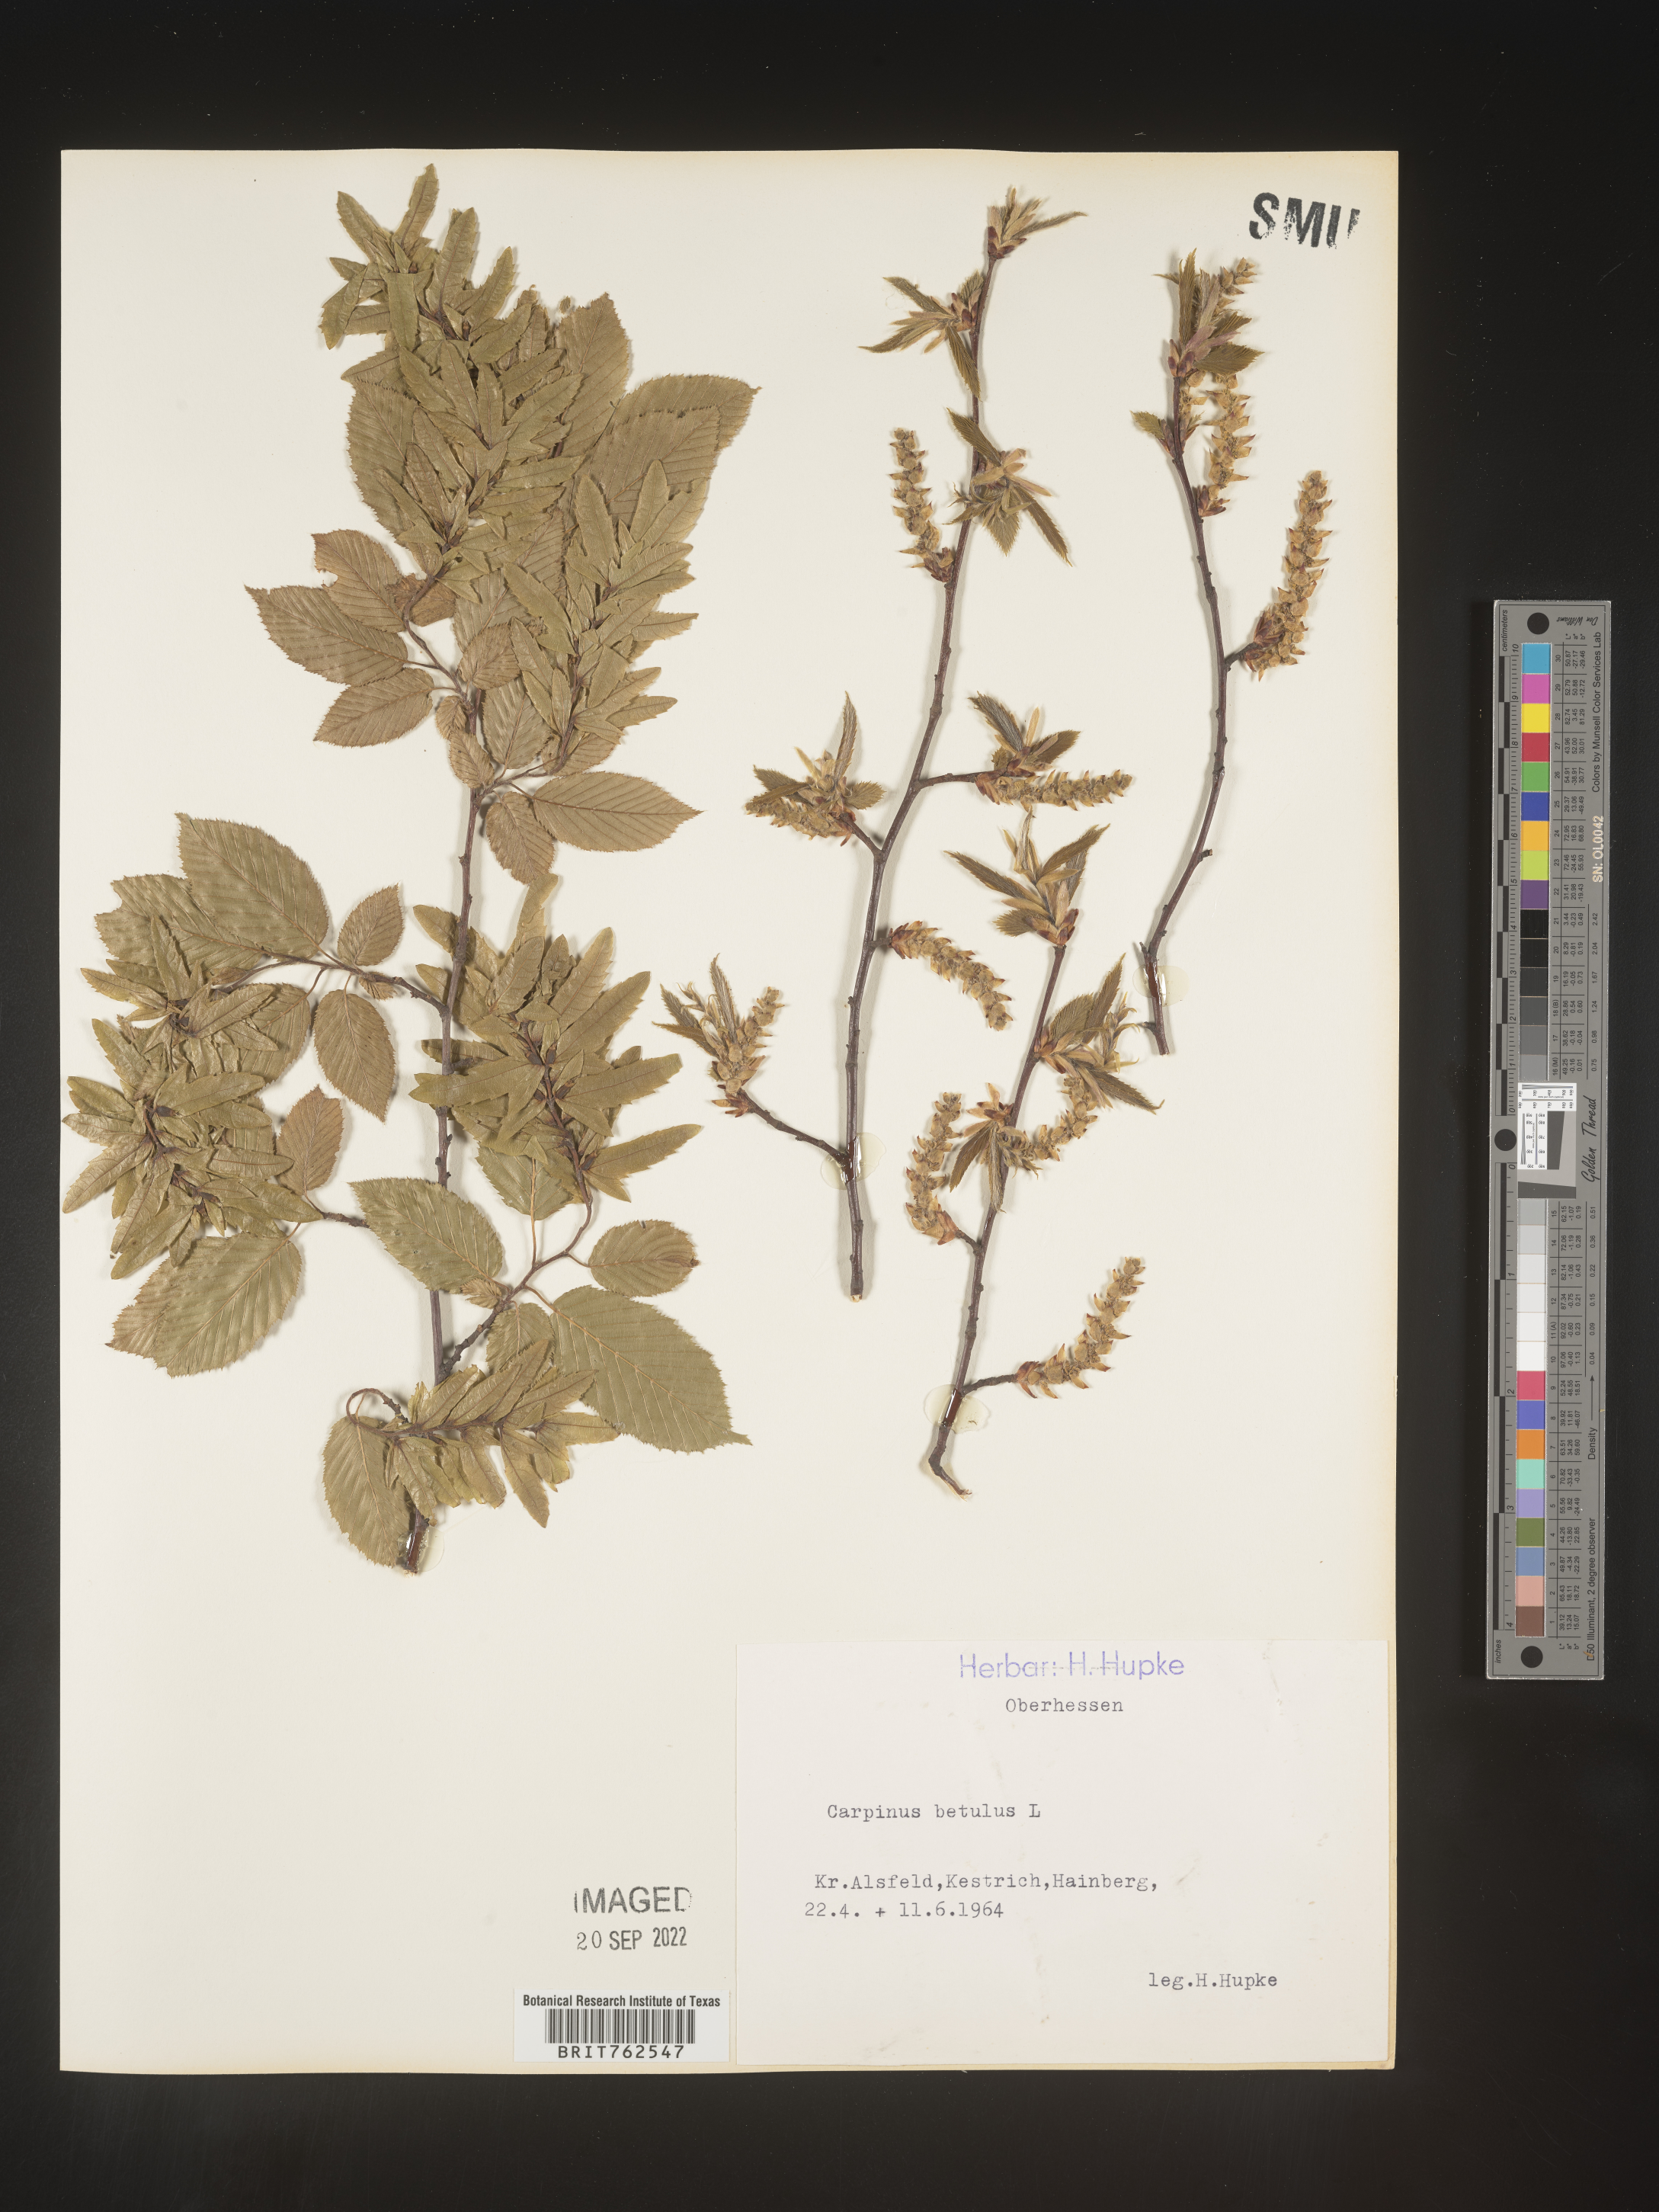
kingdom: Plantae
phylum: Tracheophyta
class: Magnoliopsida
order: Fagales
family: Betulaceae
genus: Carpinus
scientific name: Carpinus
